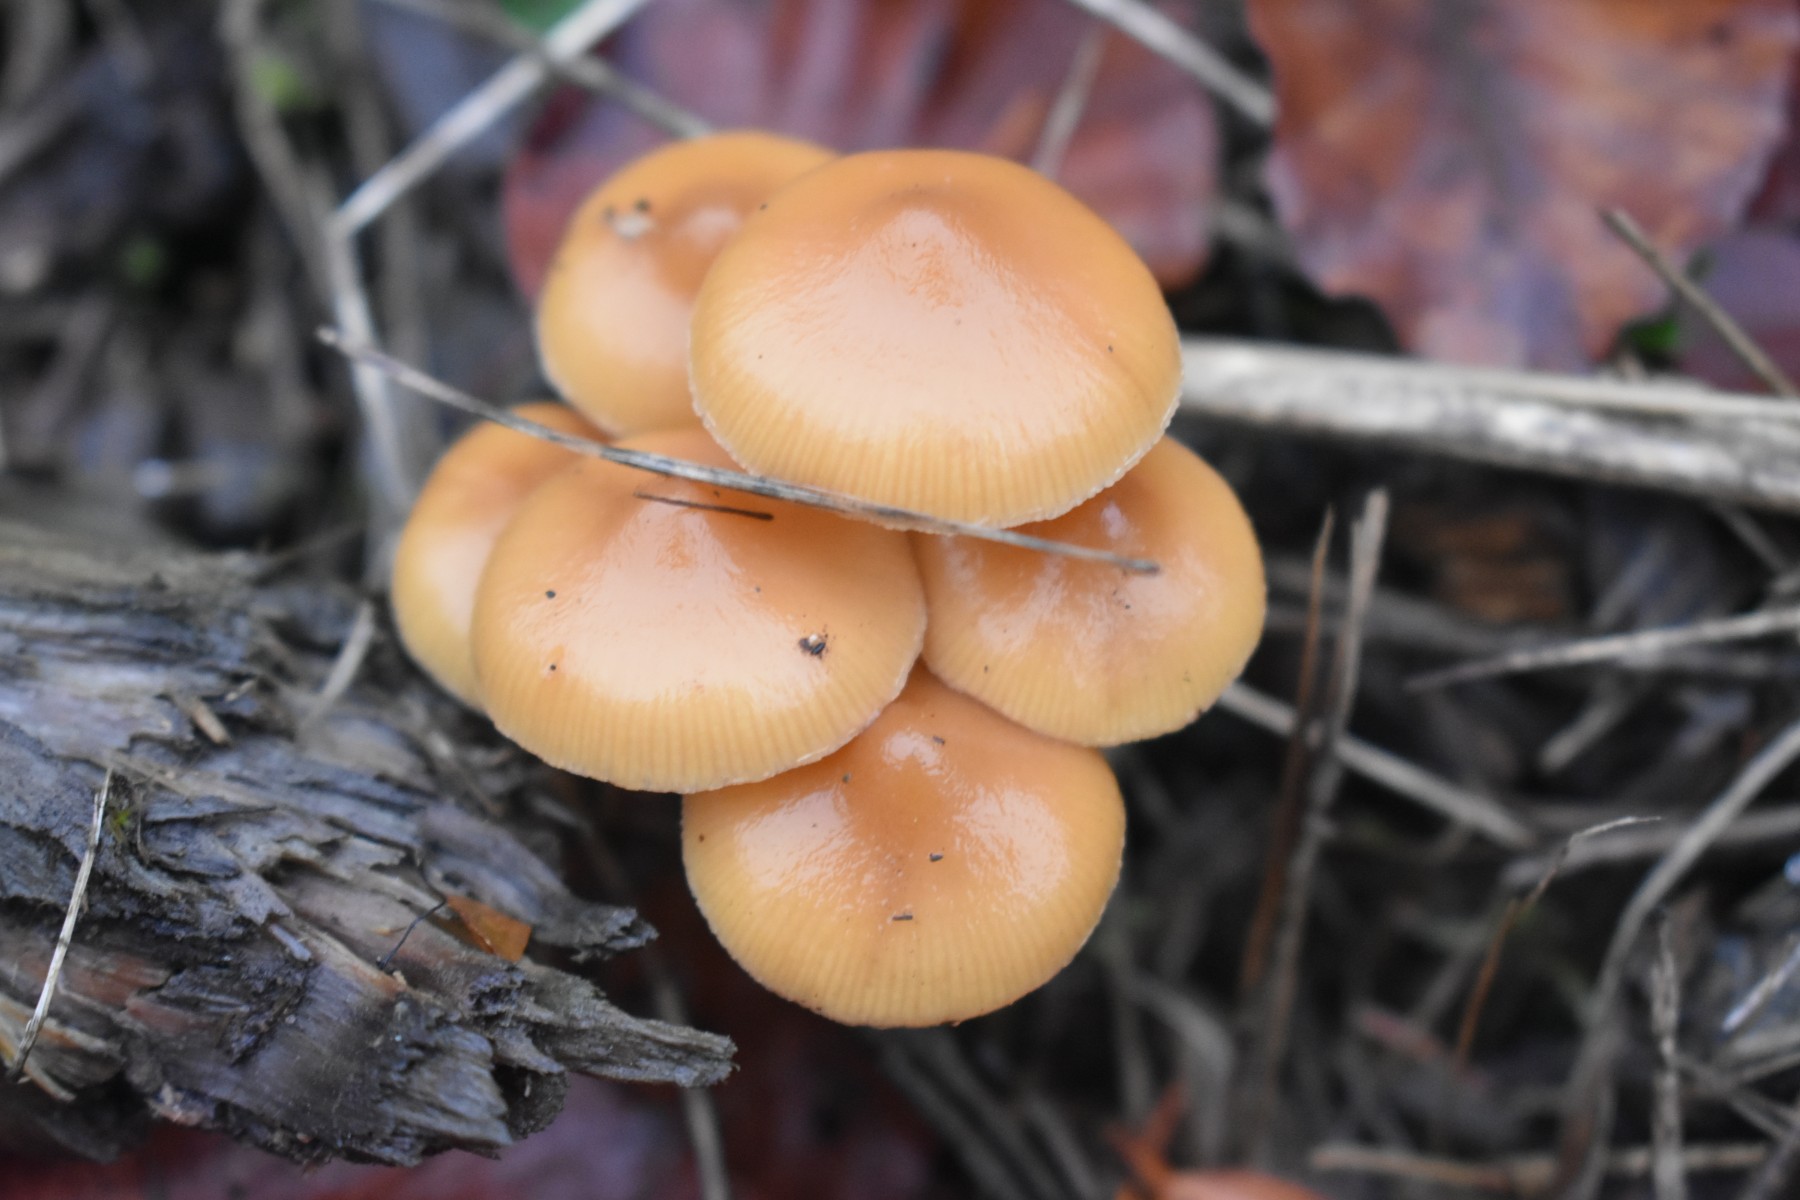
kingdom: Fungi
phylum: Basidiomycota
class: Agaricomycetes
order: Agaricales
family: Hymenogastraceae
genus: Galerina
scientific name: Galerina sideroides
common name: træflis-hjelmhat
